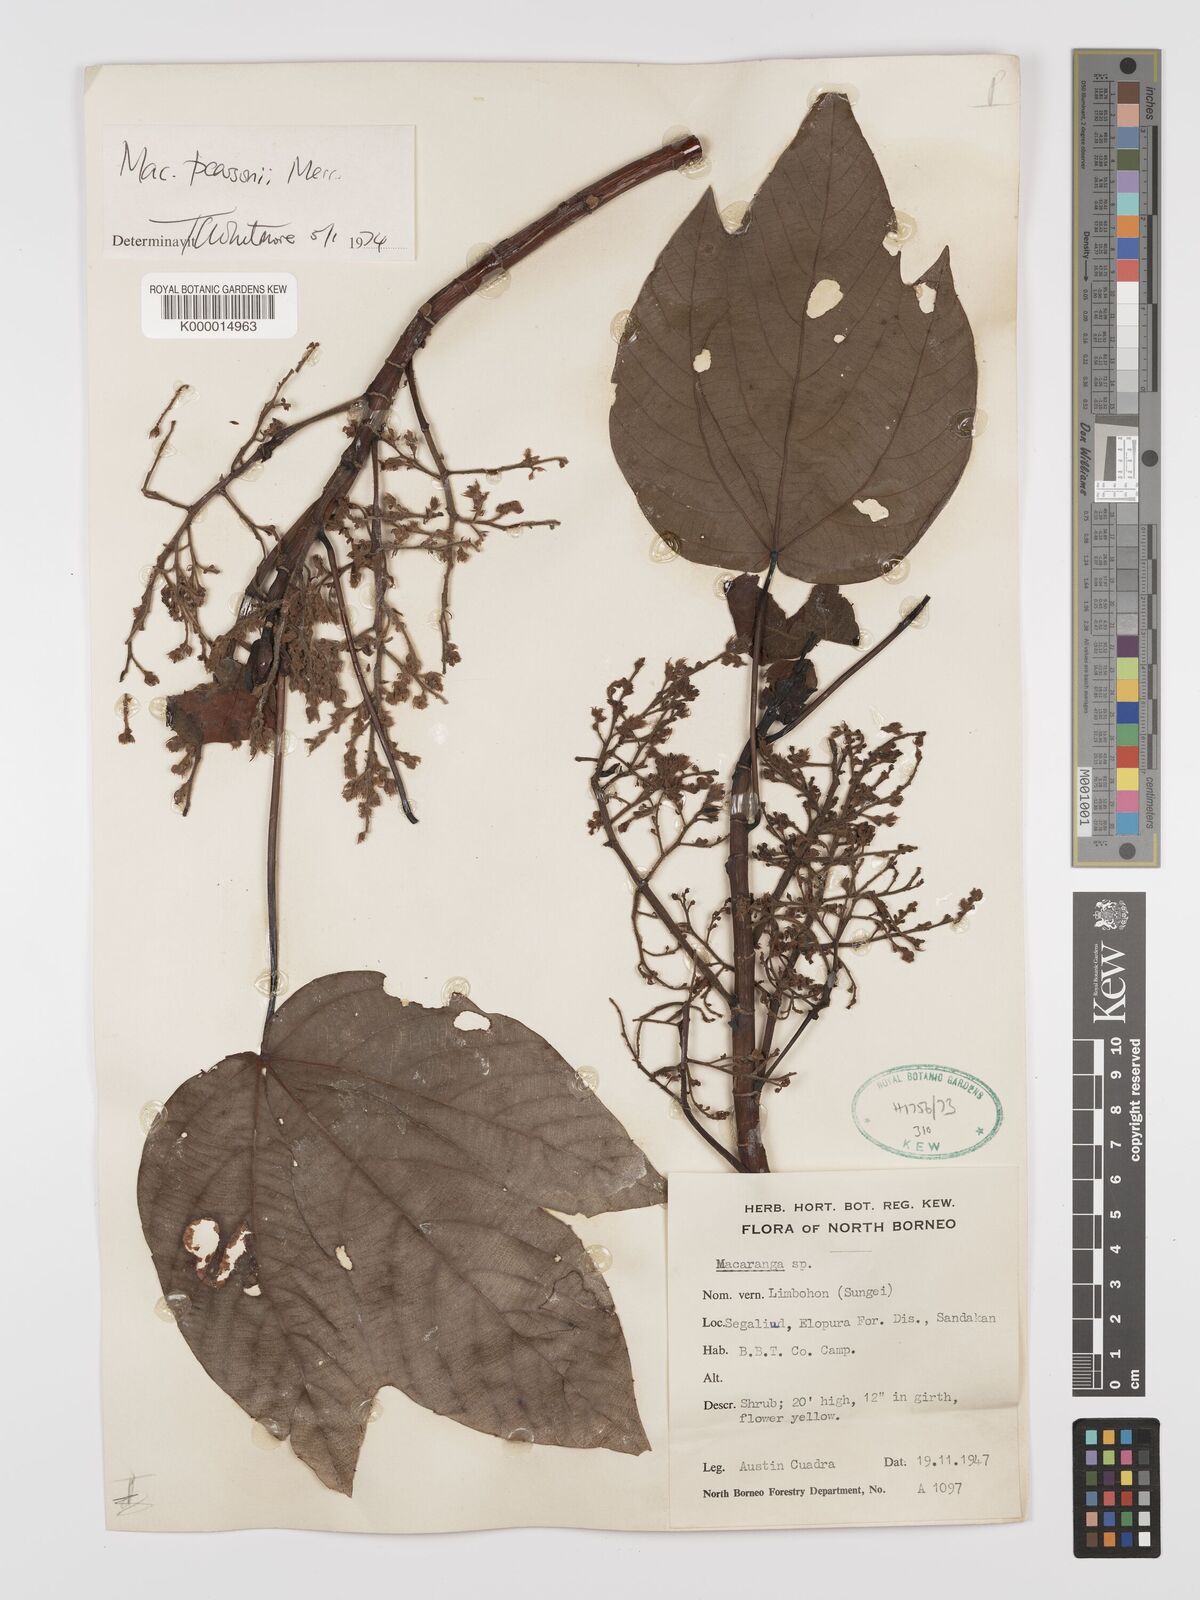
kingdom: Plantae
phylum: Tracheophyta
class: Magnoliopsida
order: Malpighiales
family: Euphorbiaceae
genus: Macaranga
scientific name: Macaranga pearsonii
